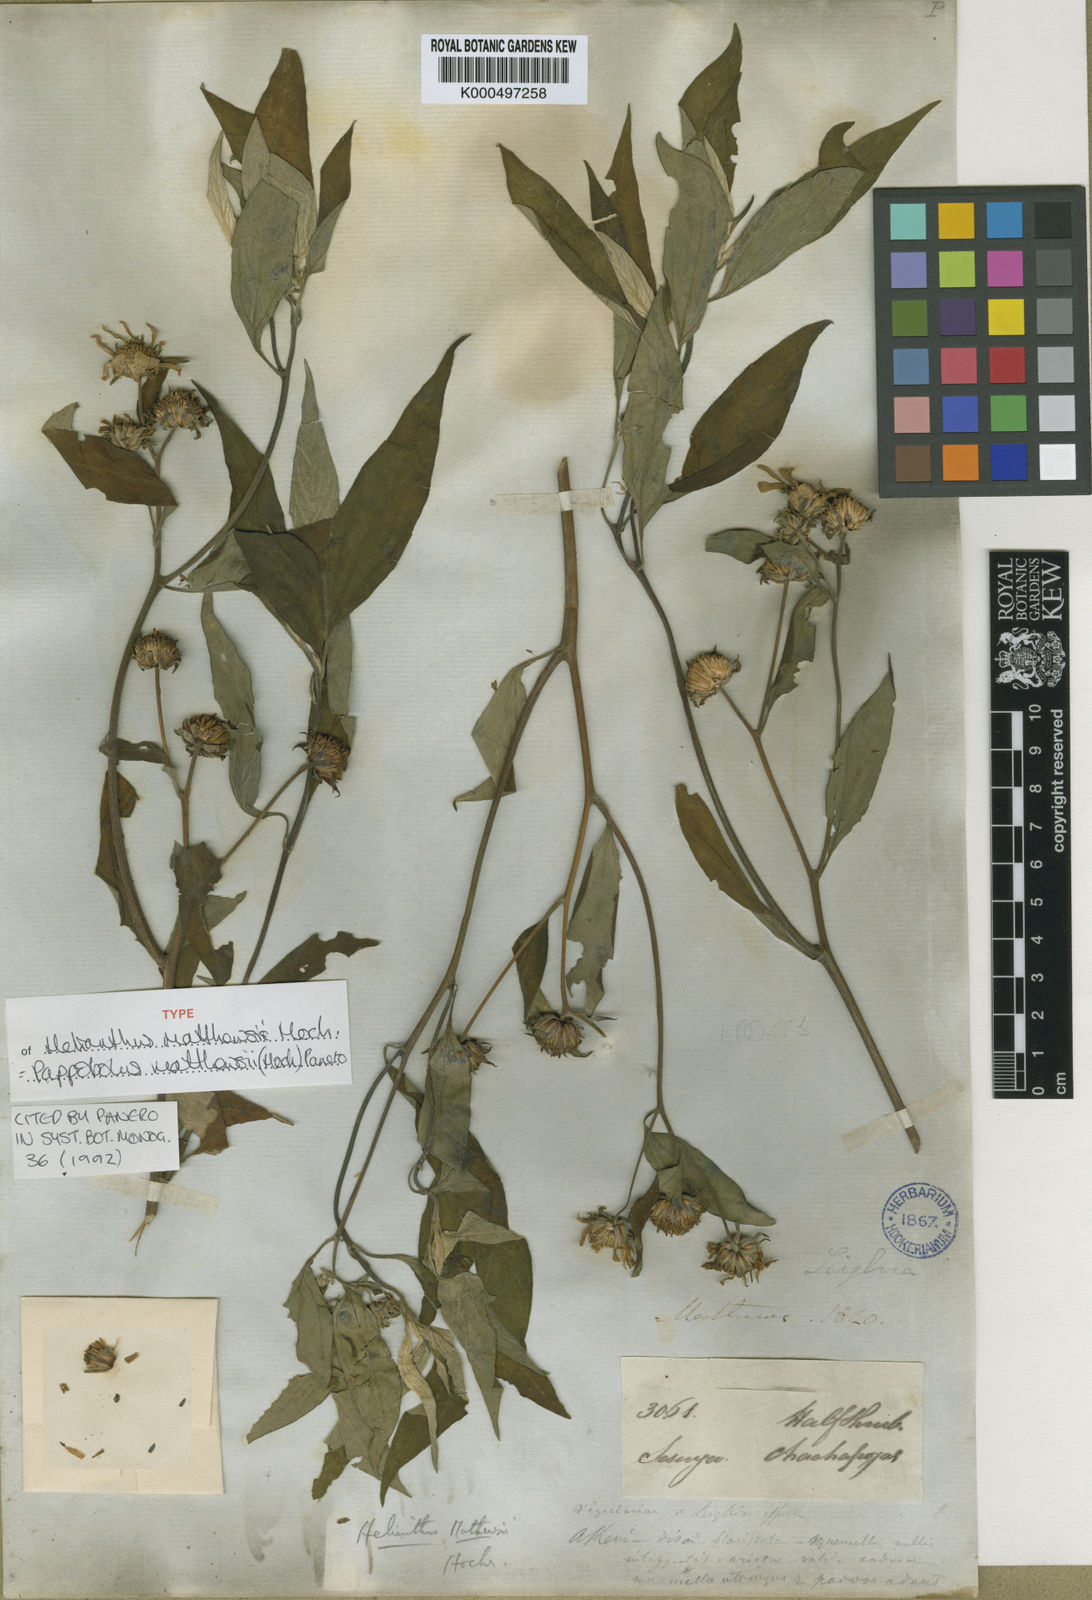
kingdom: Plantae
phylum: Tracheophyta
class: Magnoliopsida
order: Asterales
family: Asteraceae
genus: Pappobolus
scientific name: Pappobolus matthewsii
